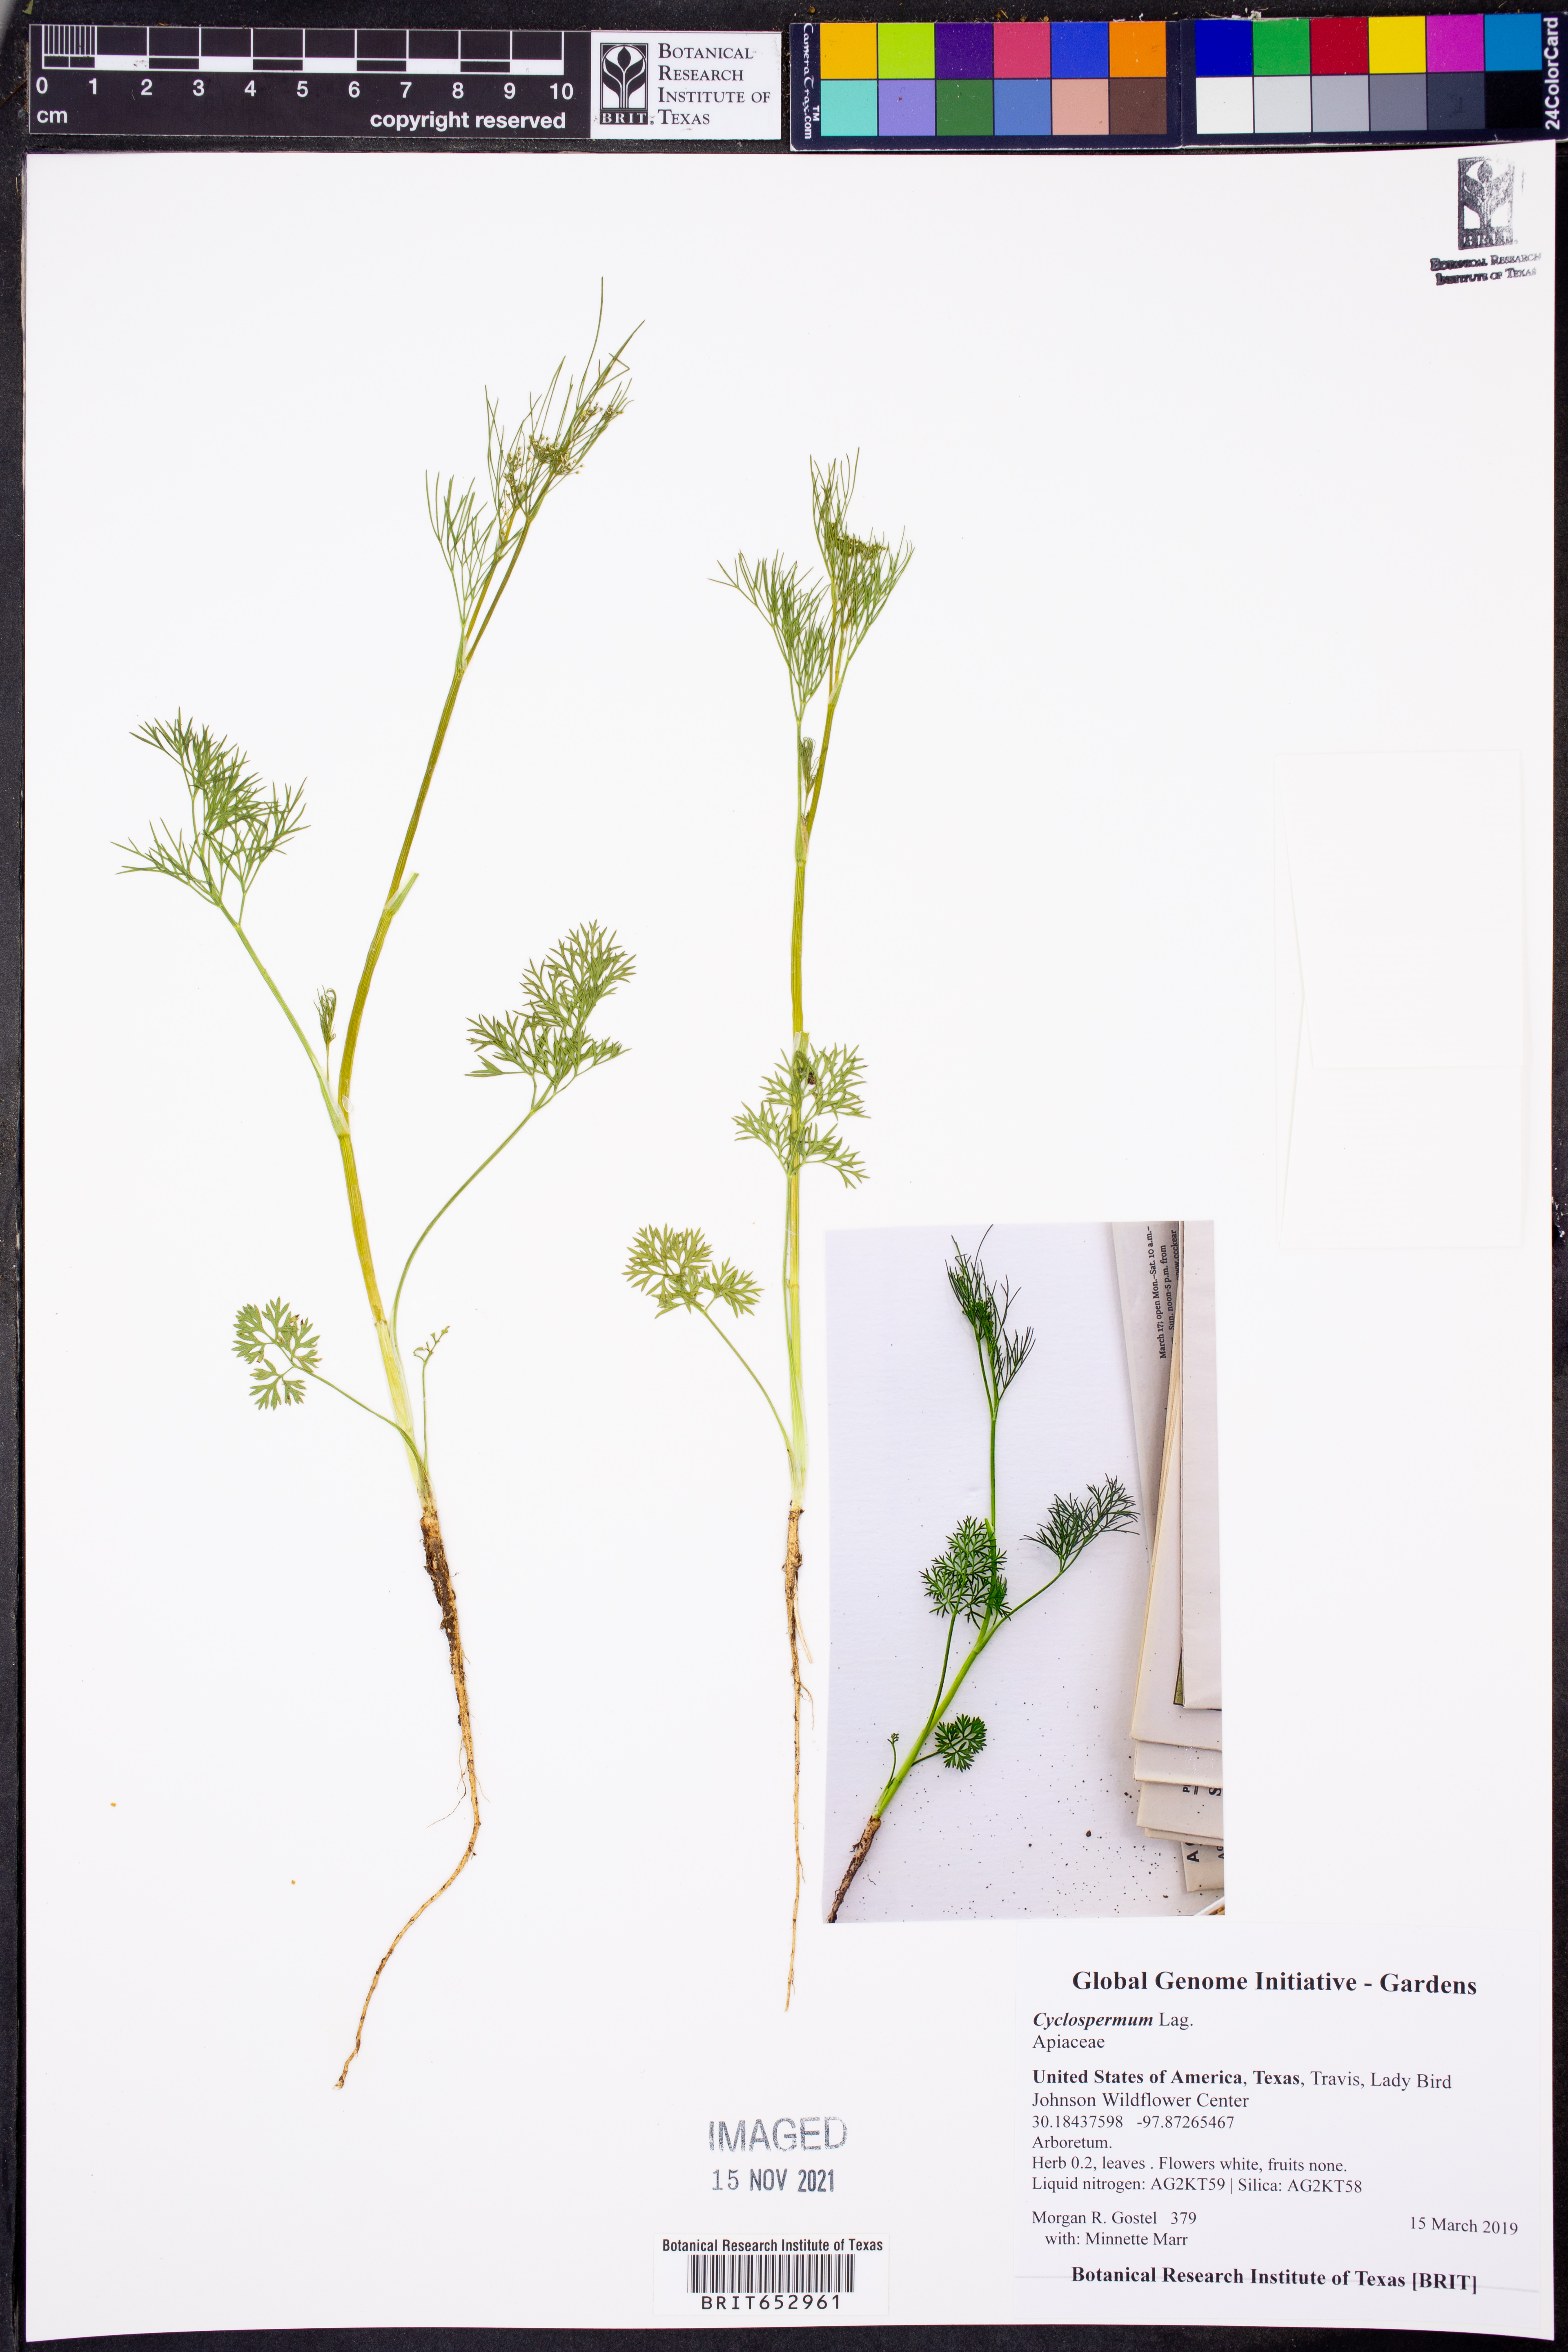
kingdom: Plantae
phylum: Tracheophyta
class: Magnoliopsida
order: Apiales
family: Apiaceae
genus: Cyclospermum
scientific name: Cyclospermum
